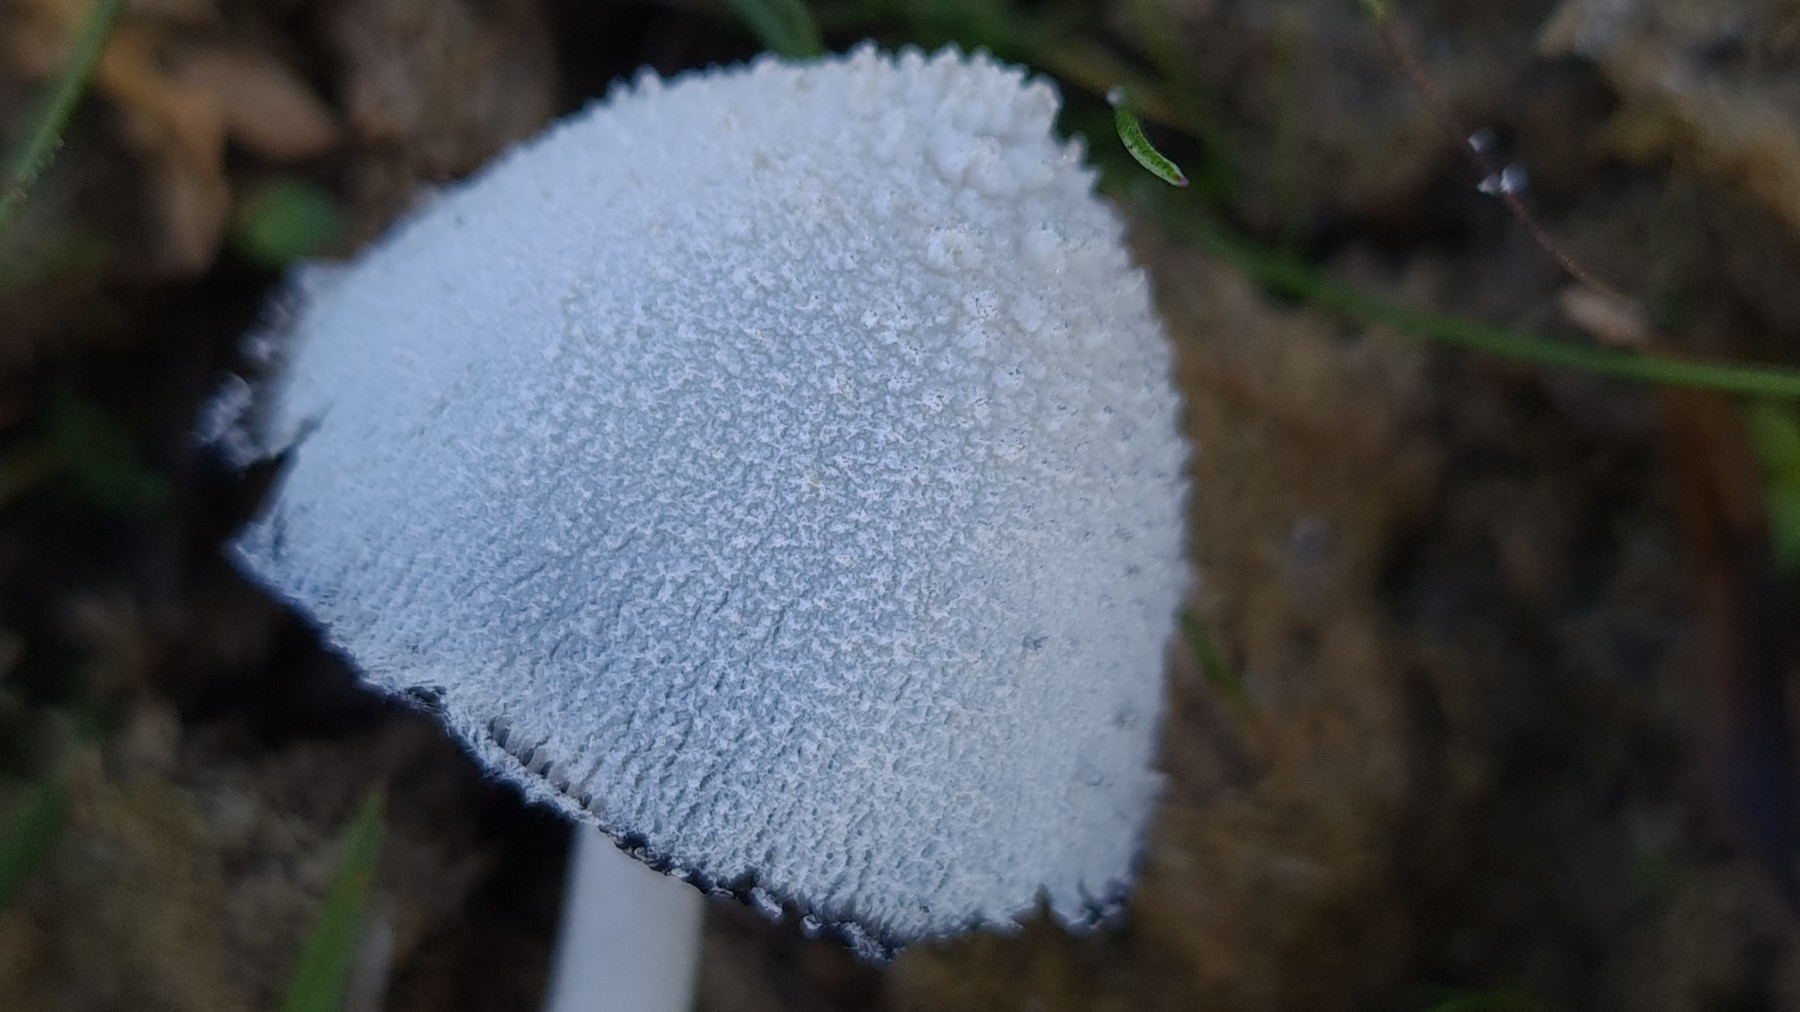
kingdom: Fungi
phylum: Basidiomycota
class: Agaricomycetes
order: Agaricales
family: Psathyrellaceae
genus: Coprinopsis
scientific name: Coprinopsis nivea
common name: snehvid blækhat
